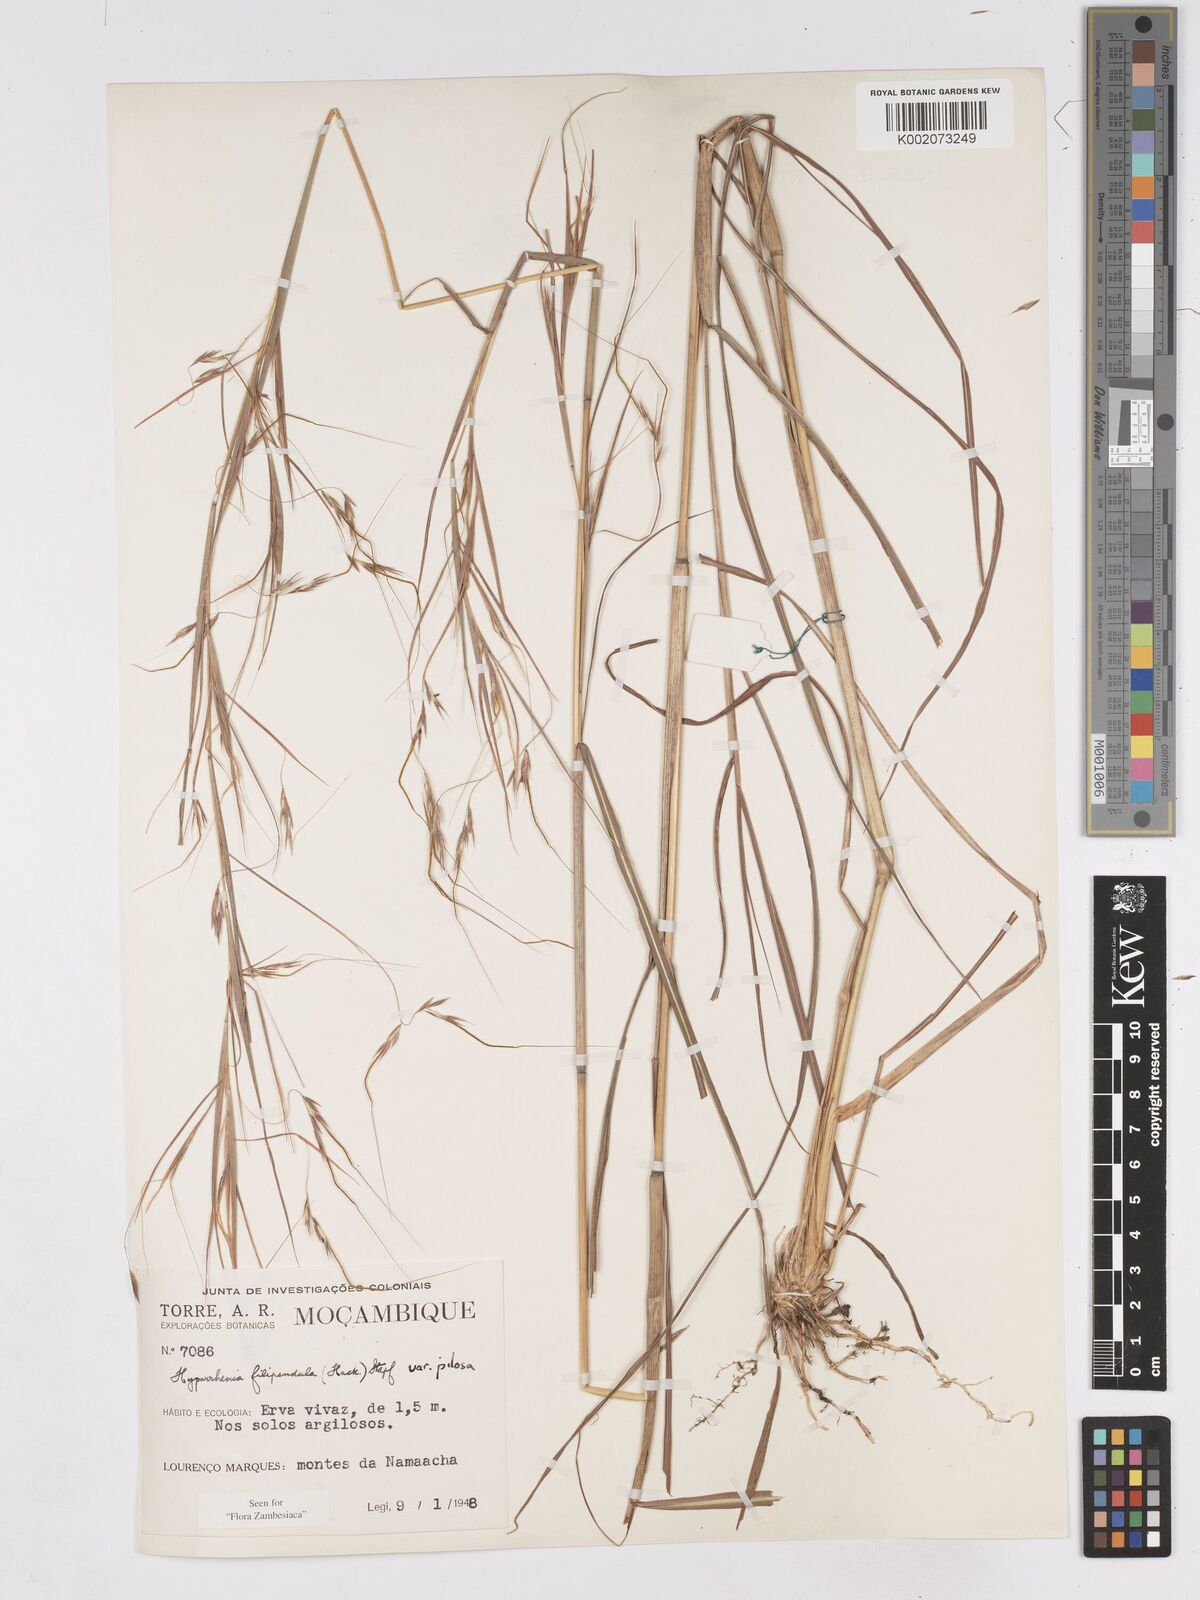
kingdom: Plantae
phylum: Tracheophyta
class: Liliopsida
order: Poales
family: Poaceae
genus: Hyparrhenia
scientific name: Hyparrhenia filipendula
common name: Tambookie grass
